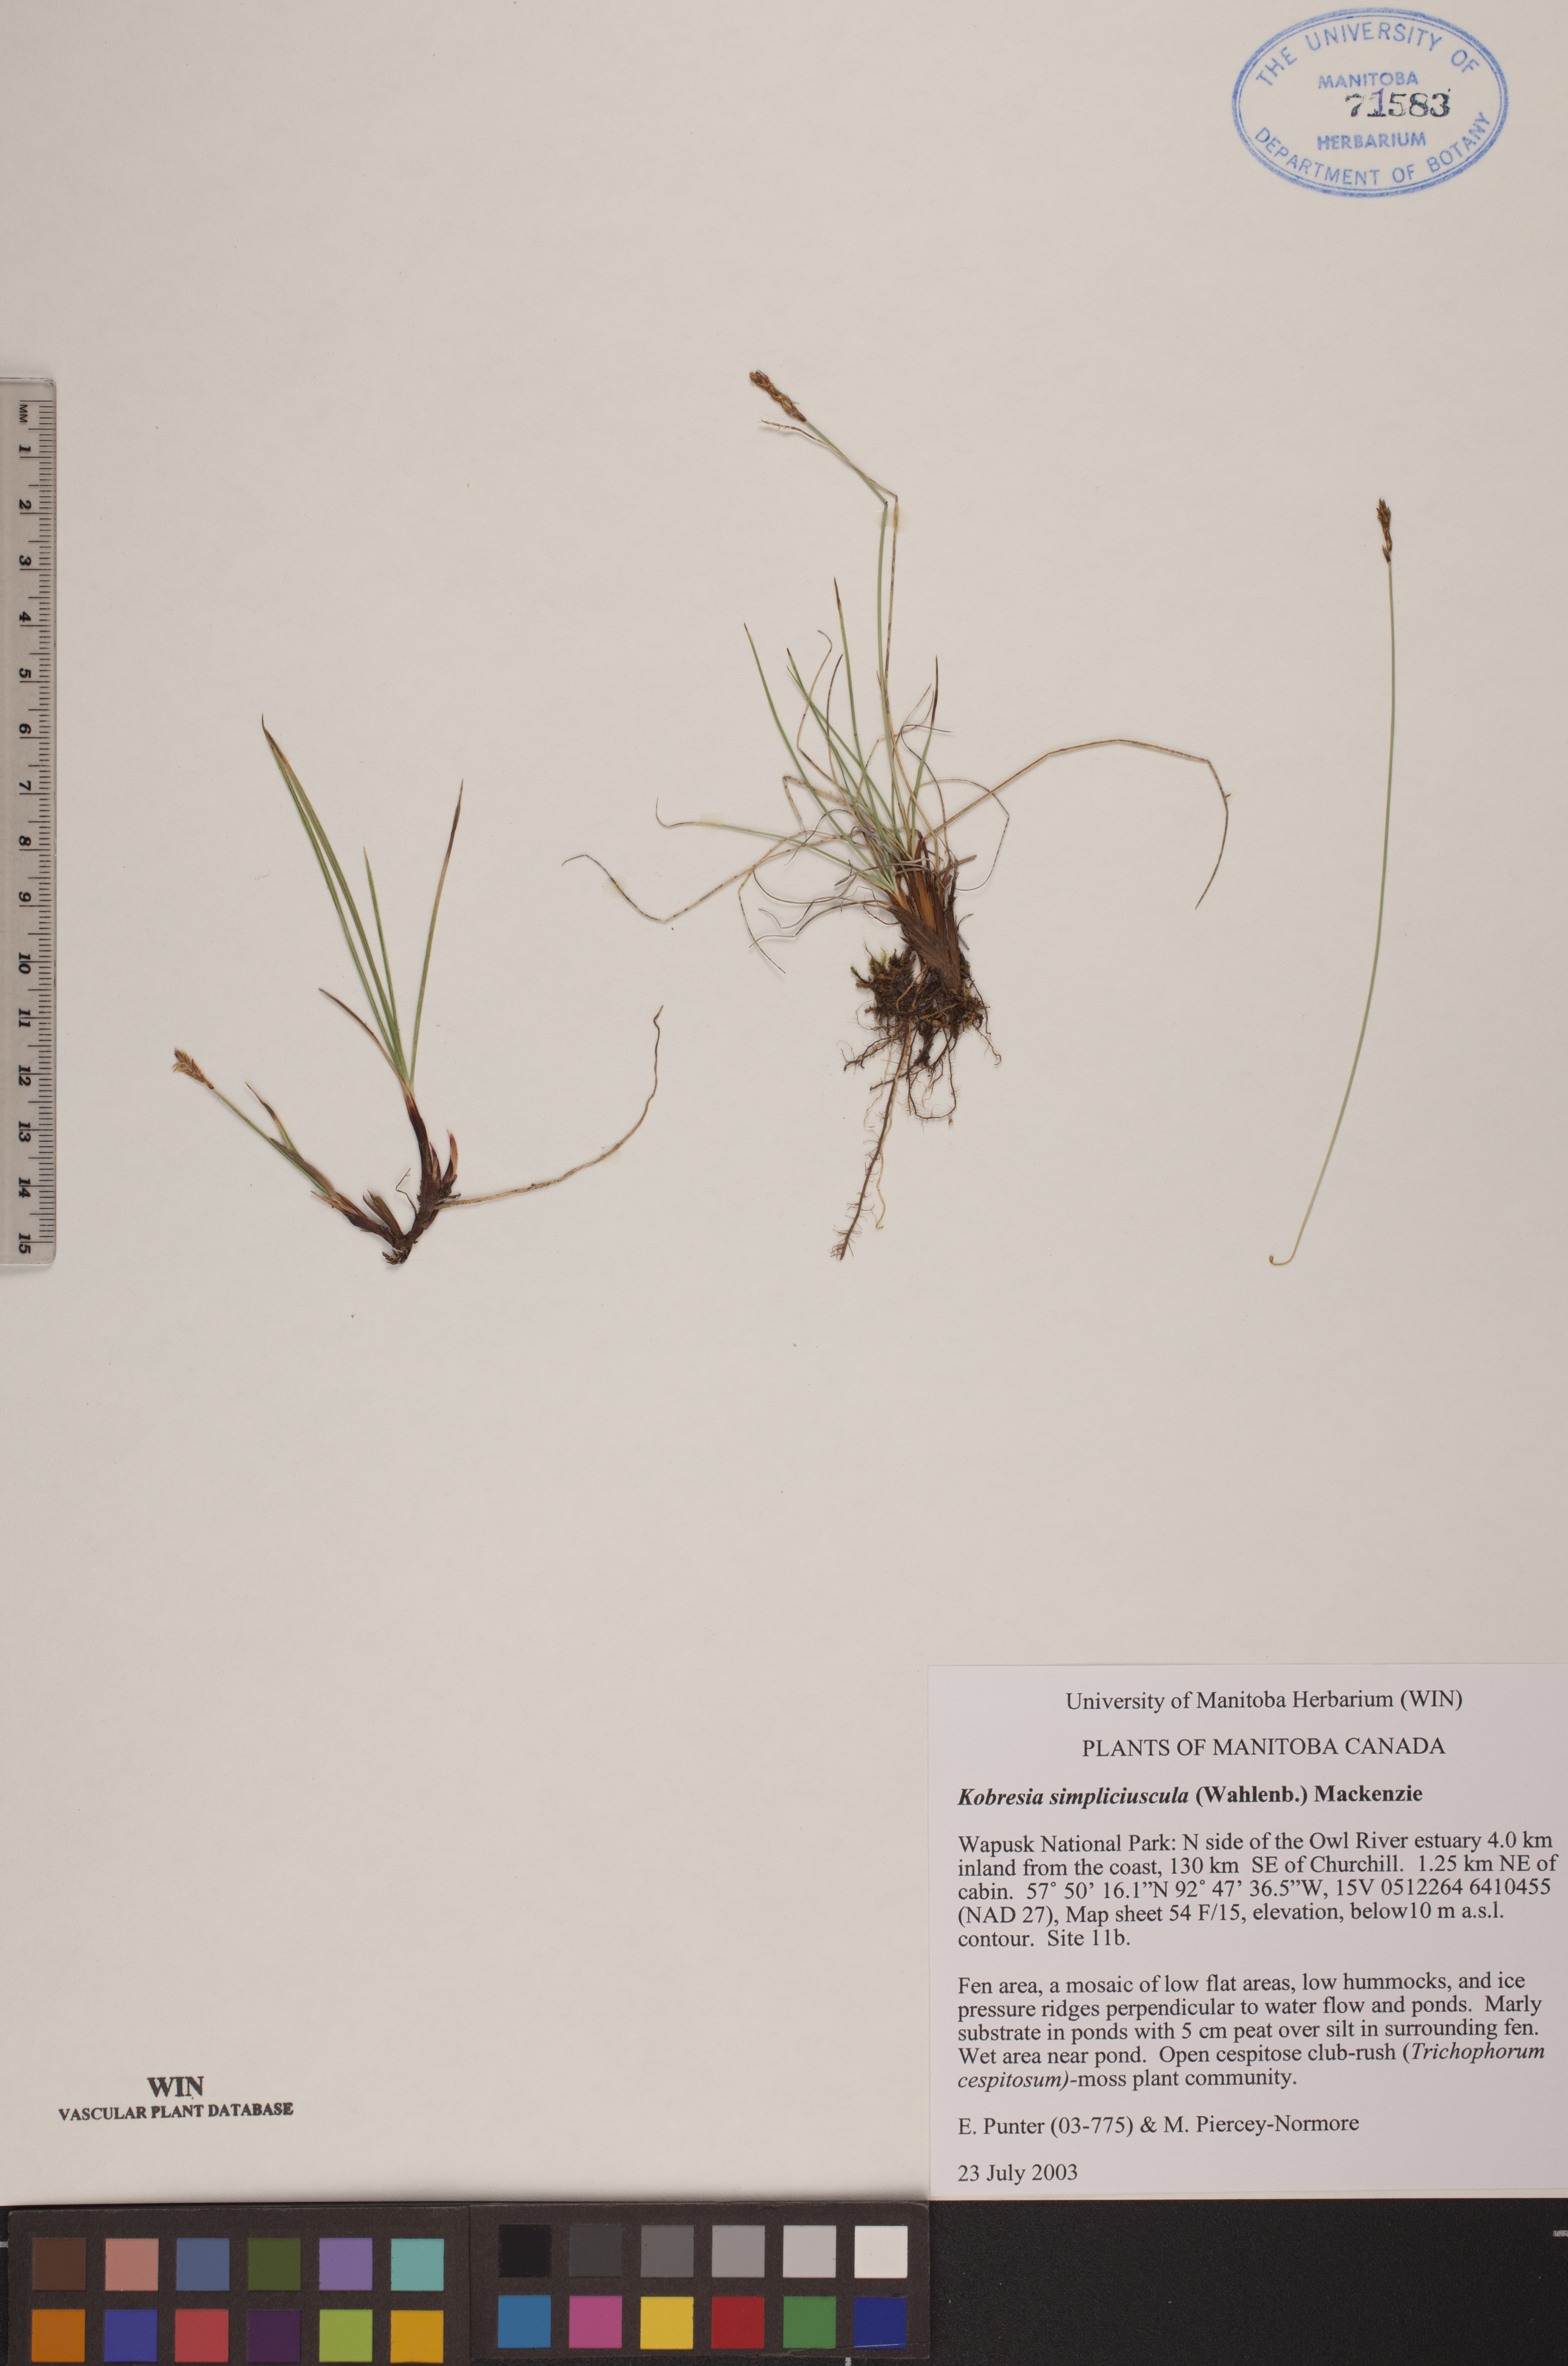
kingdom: Plantae
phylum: Tracheophyta
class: Liliopsida
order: Poales
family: Cyperaceae
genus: Carex
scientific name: Carex simpliciuscula
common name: Simple bog sedge
